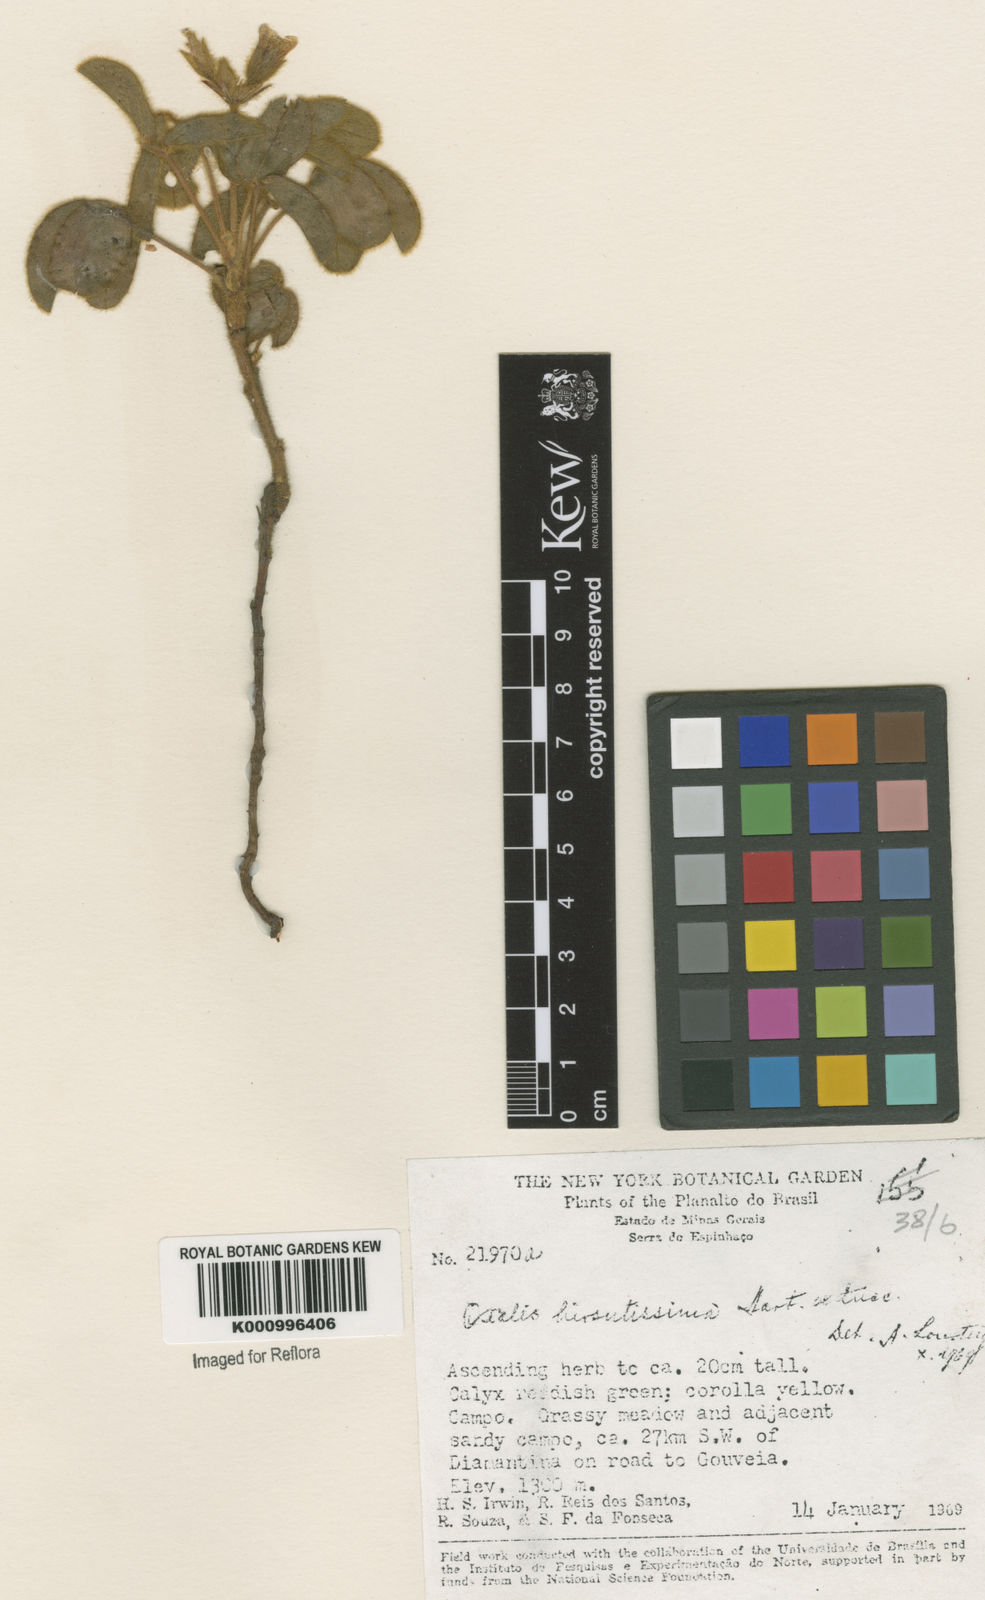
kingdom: Plantae
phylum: Tracheophyta
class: Magnoliopsida
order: Oxalidales
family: Oxalidaceae
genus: Oxalis
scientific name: Oxalis hirsutissima
